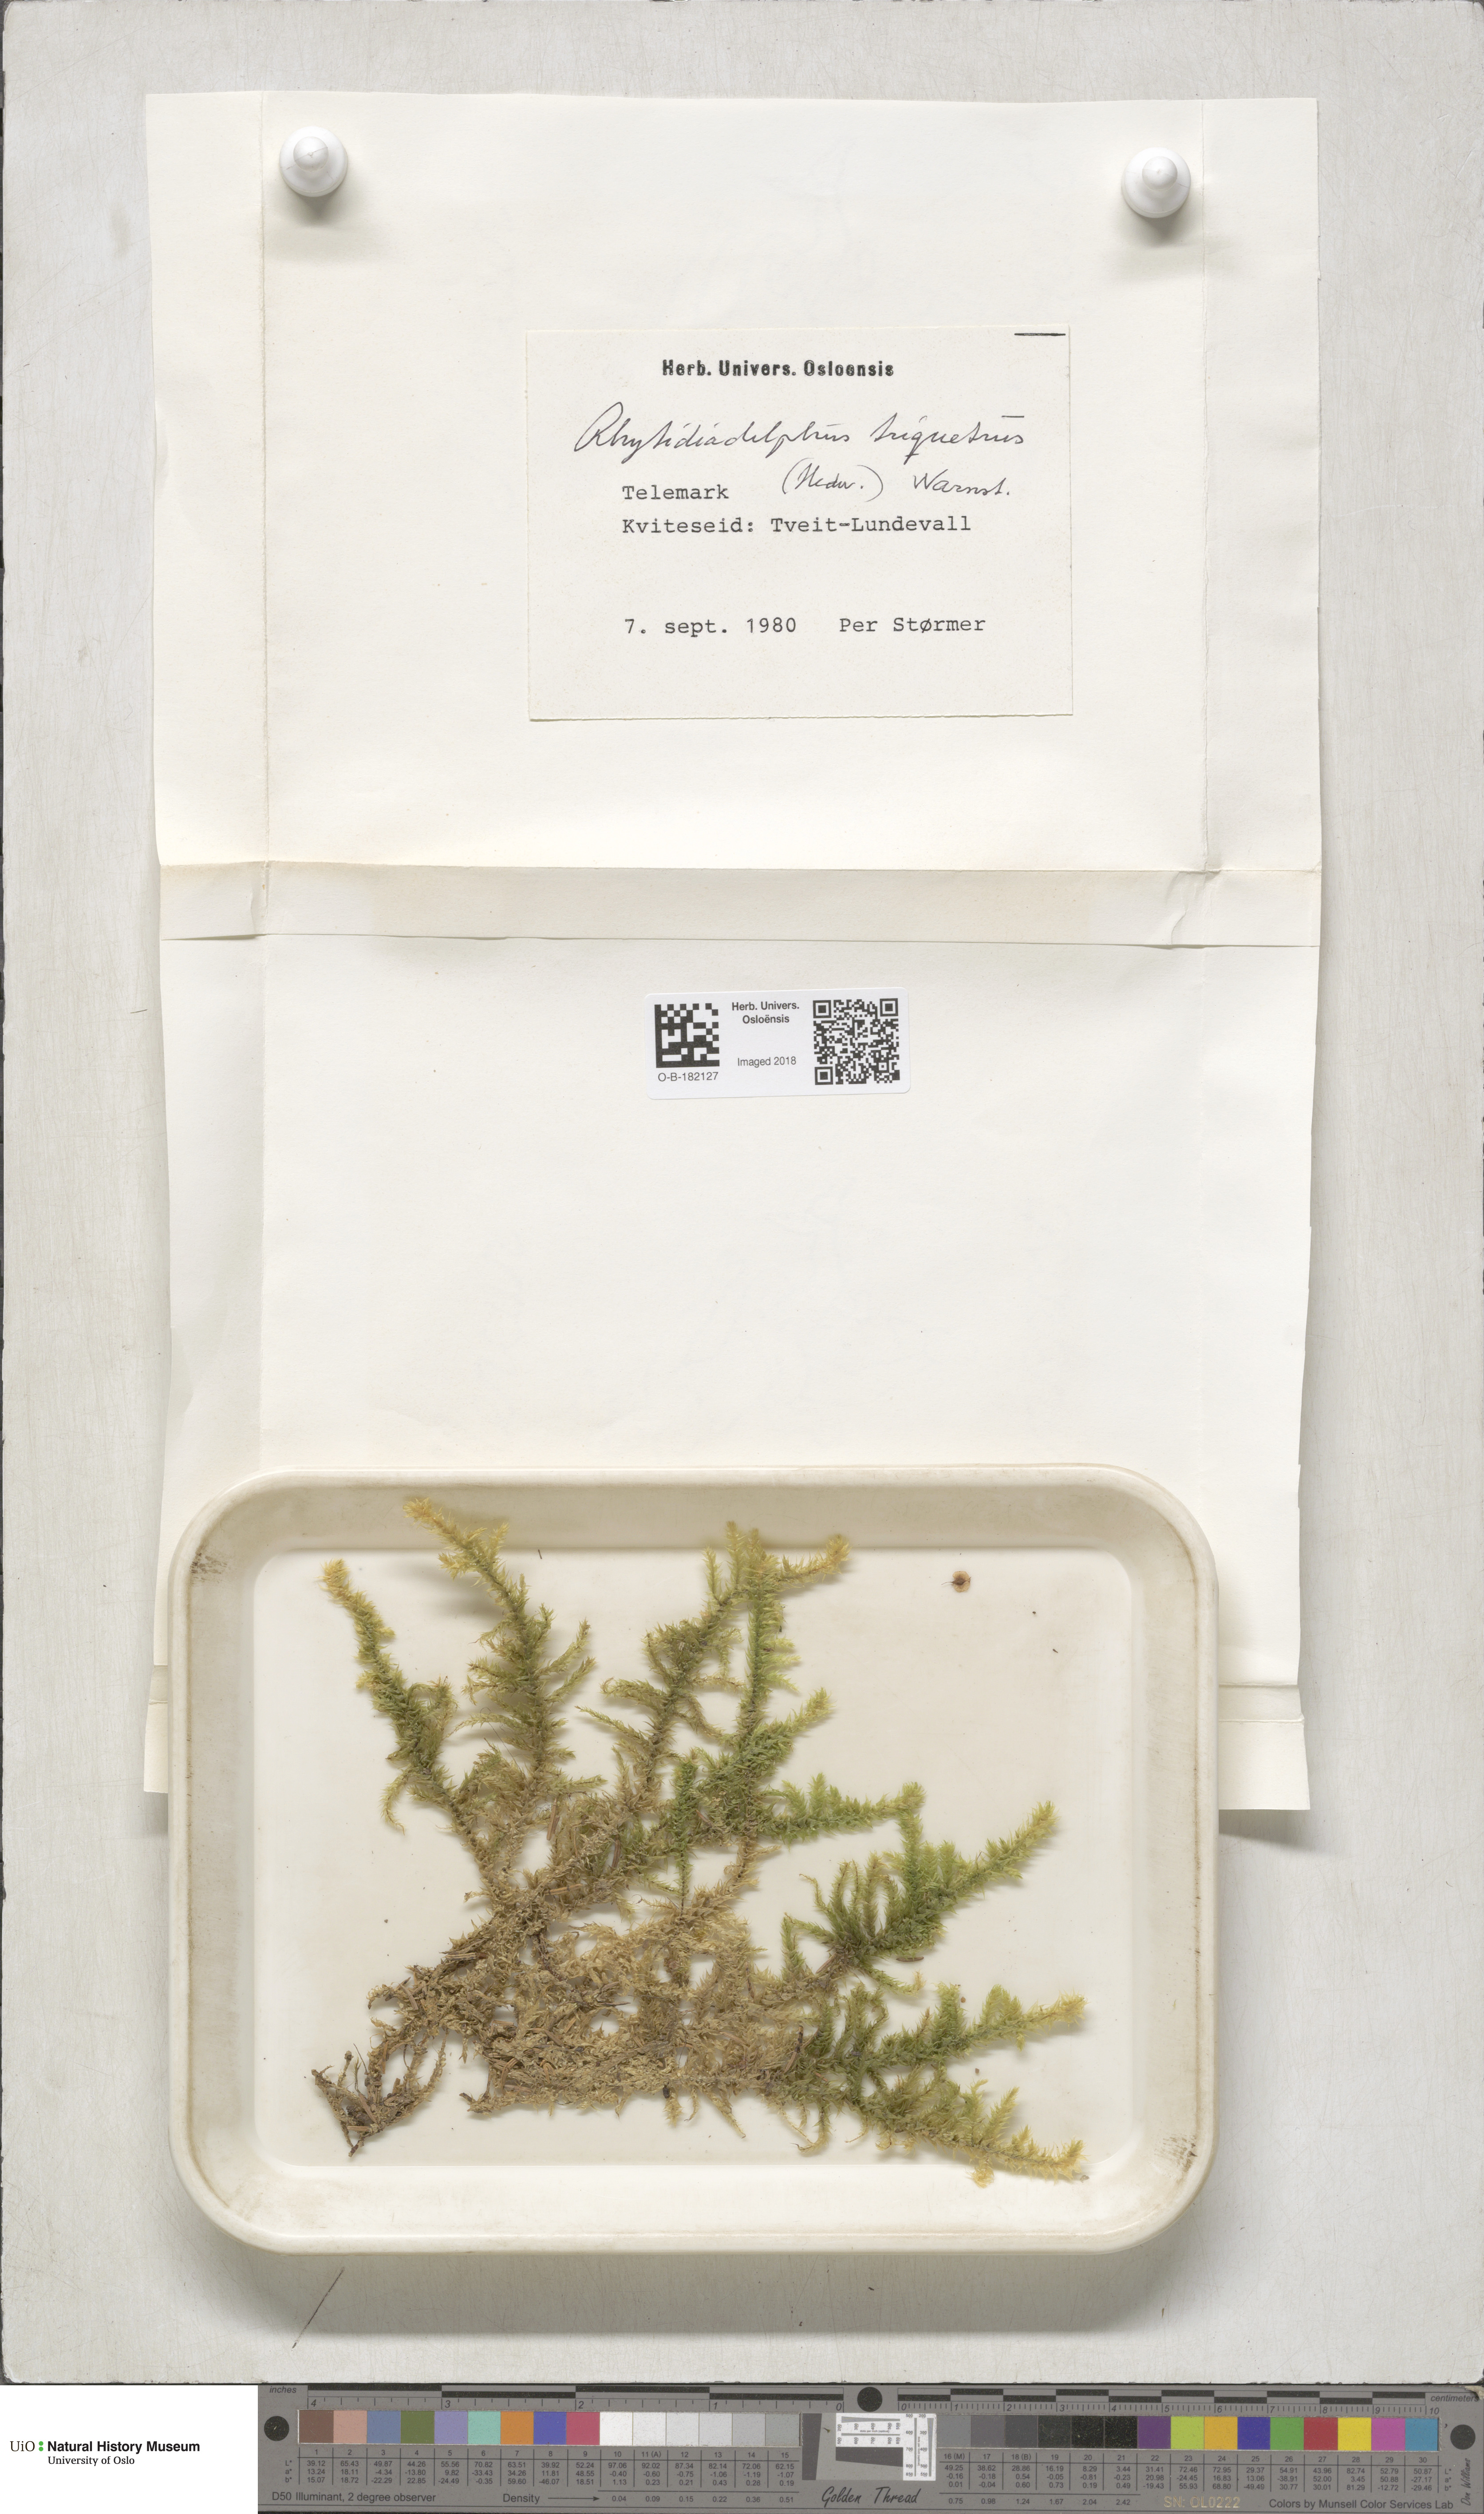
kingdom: Plantae
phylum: Bryophyta
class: Bryopsida
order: Hypnales
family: Hylocomiaceae
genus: Hylocomiadelphus
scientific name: Hylocomiadelphus triquetrus
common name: Rough goose neck moss
